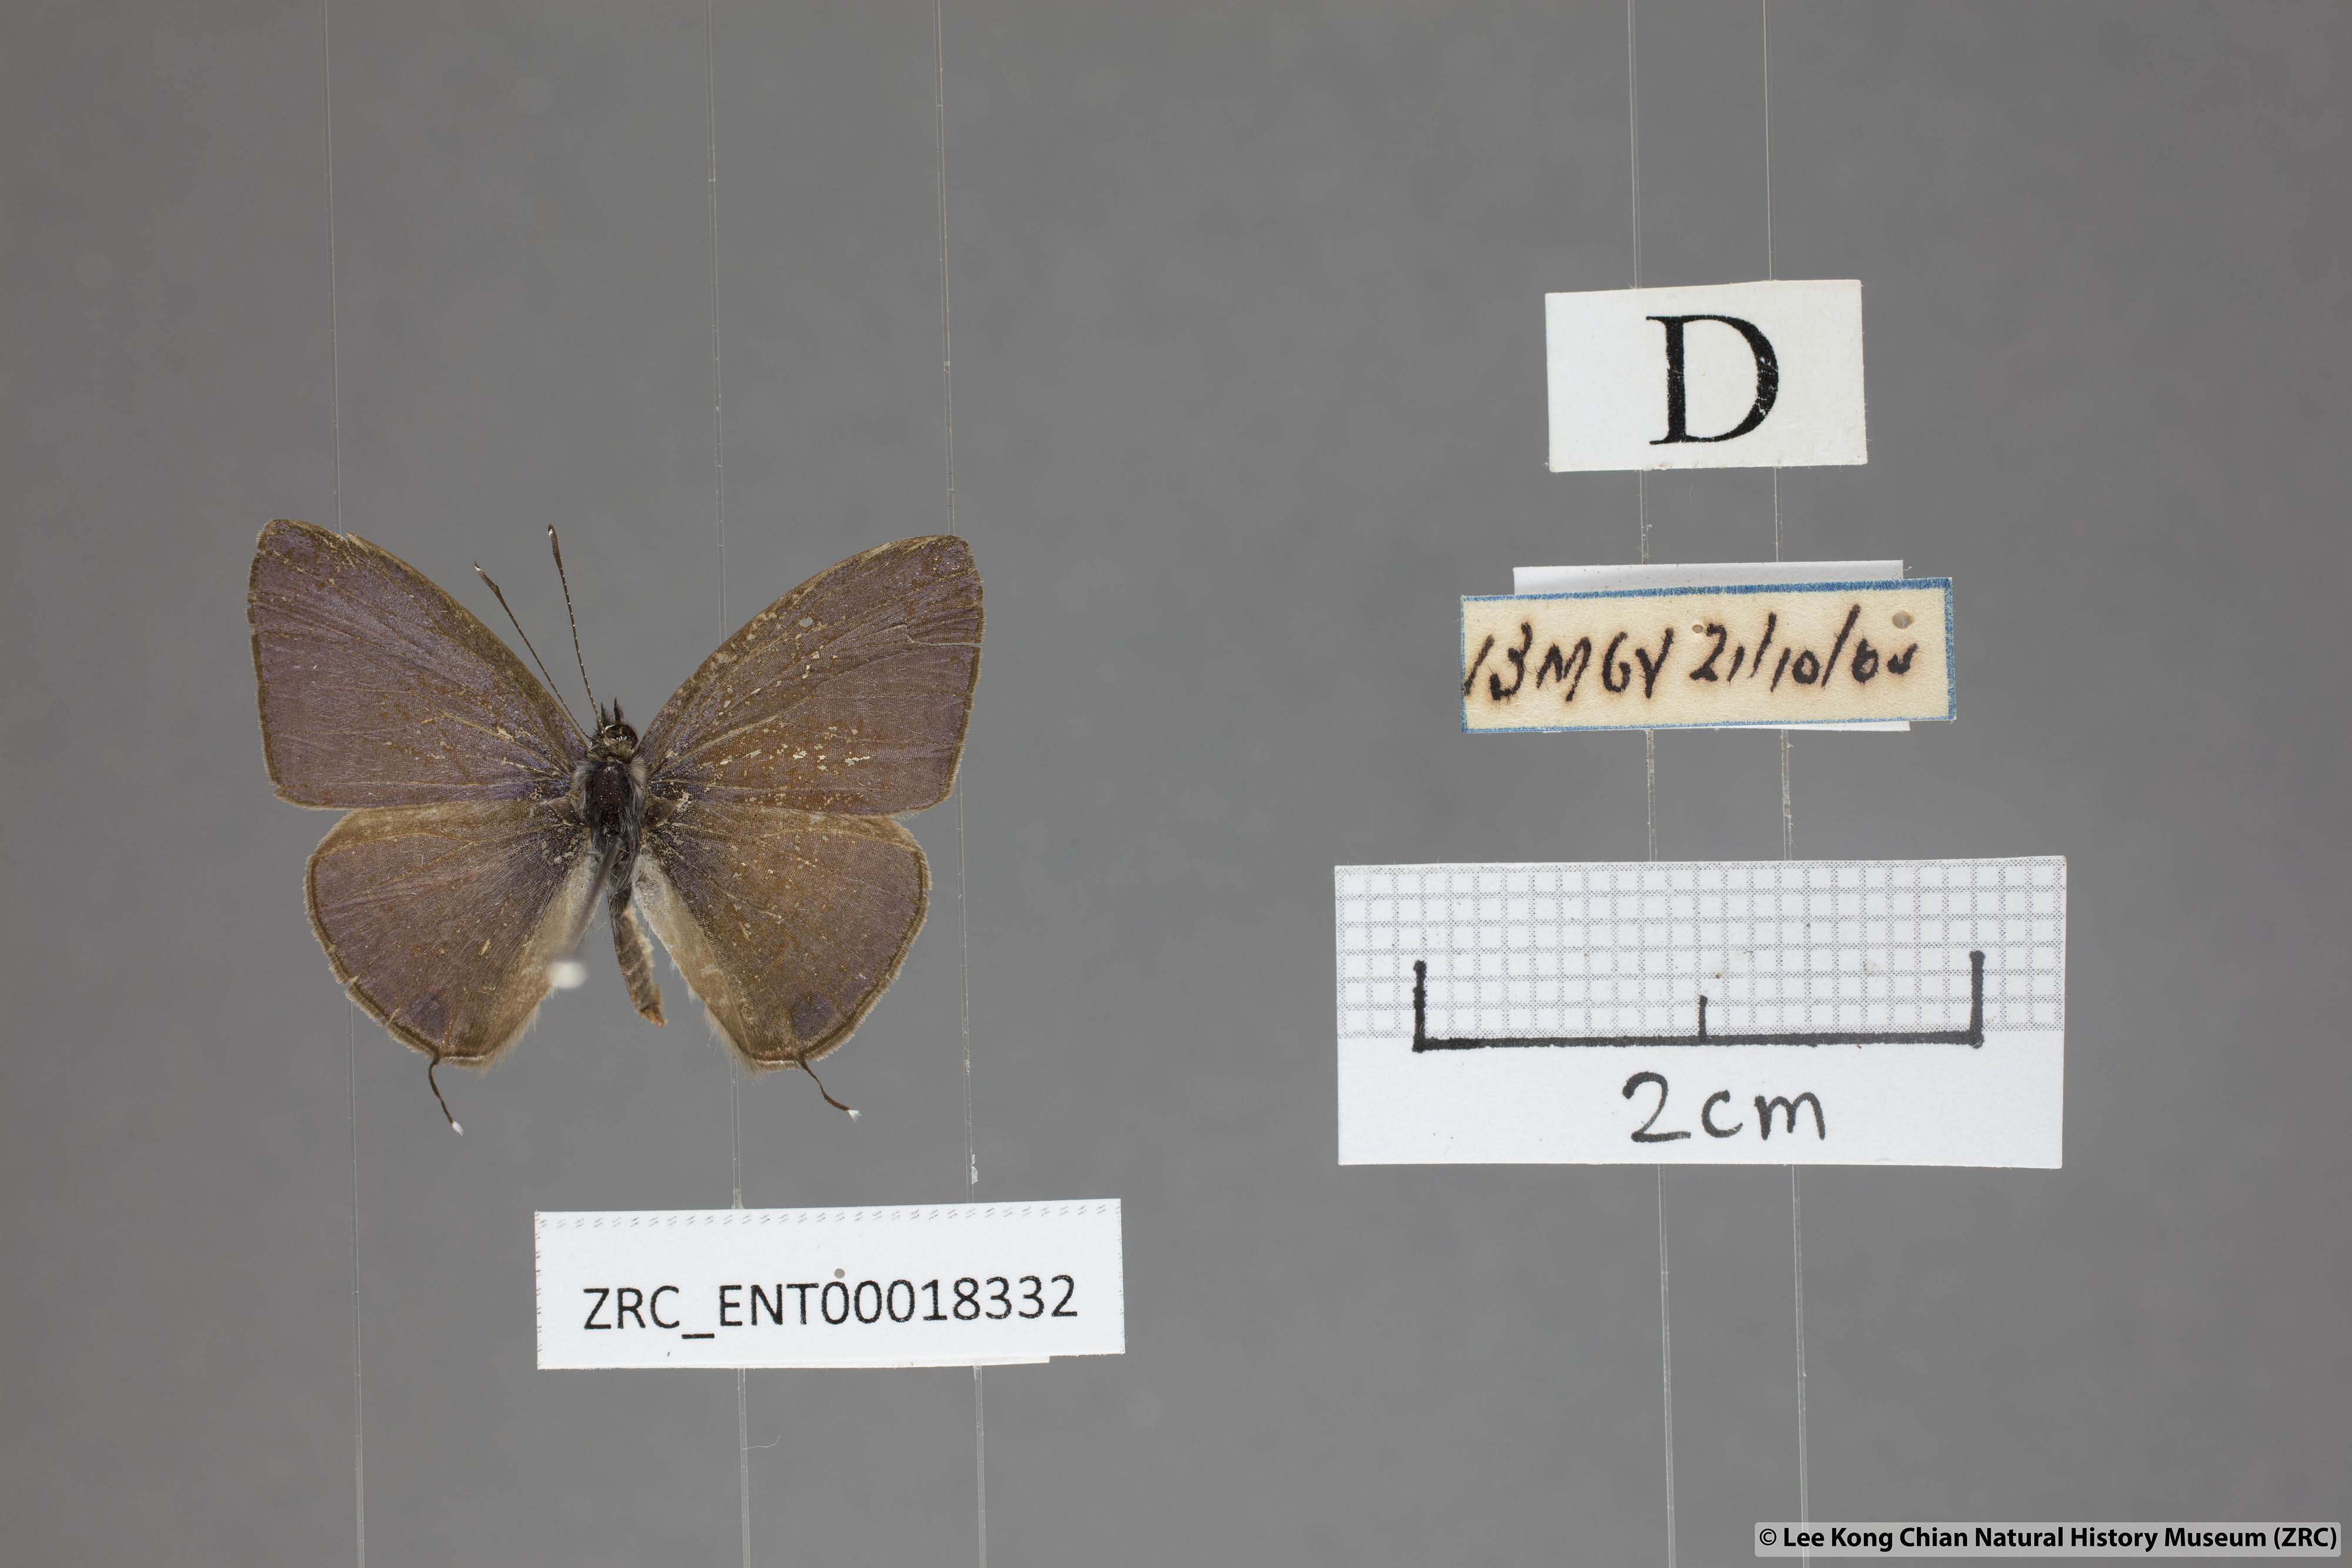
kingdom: Animalia
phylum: Arthropoda
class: Insecta
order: Lepidoptera
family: Lycaenidae
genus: Nacaduba
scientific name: Nacaduba beroe
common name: Opaque sixline blue
